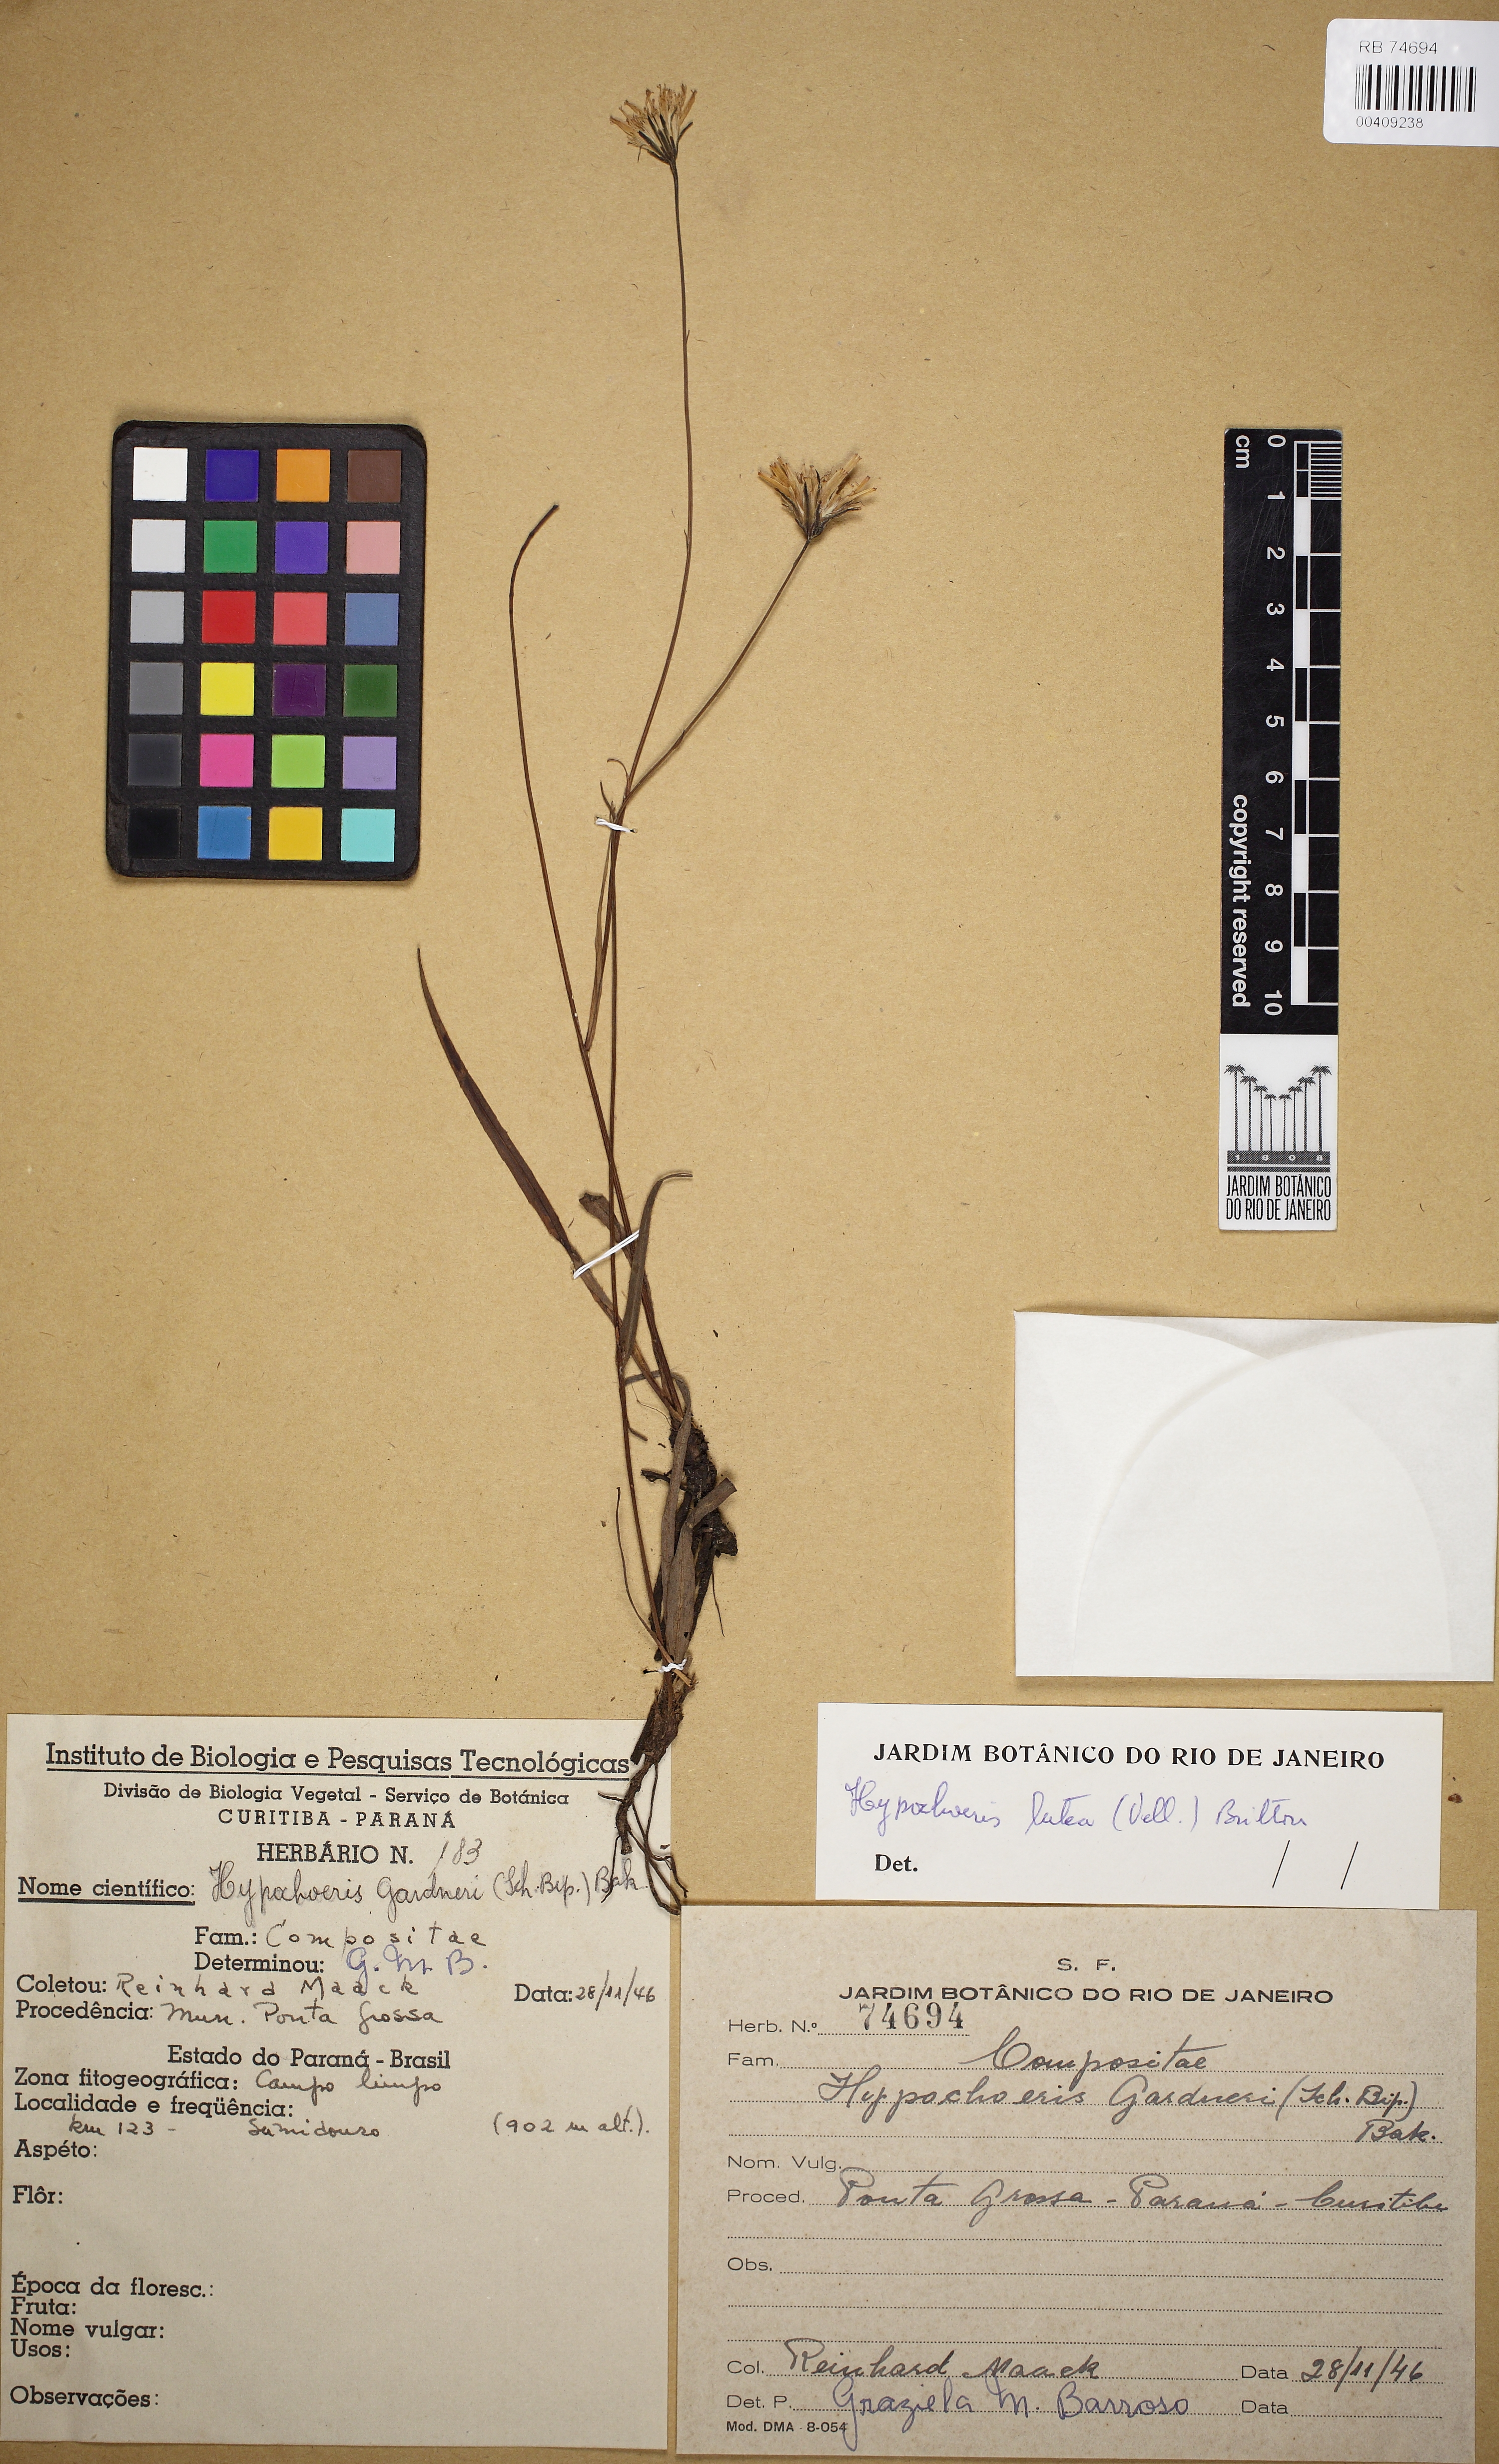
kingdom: Plantae
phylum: Tracheophyta
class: Magnoliopsida
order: Asterales
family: Asteraceae
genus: Hypochaeris
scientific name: Hypochaeris lutea
